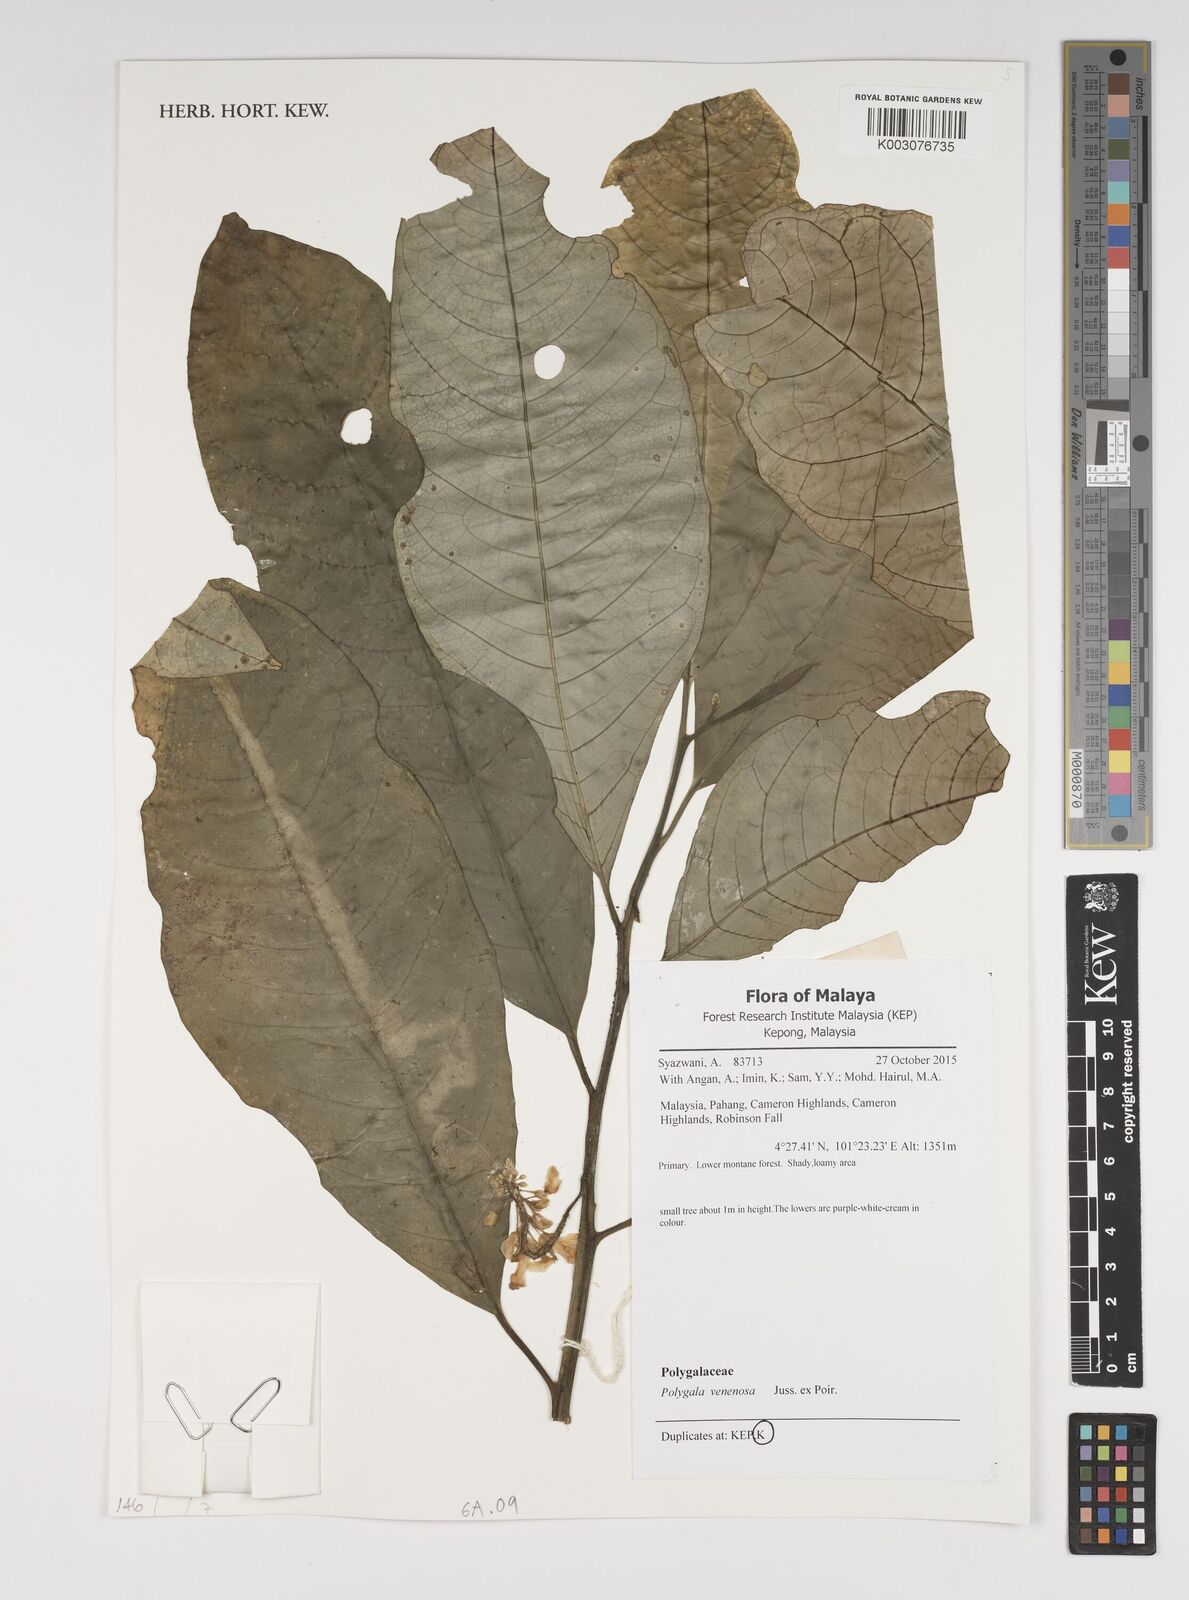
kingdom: Plantae
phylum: Tracheophyta
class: Magnoliopsida
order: Fabales
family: Polygalaceae
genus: Polygala
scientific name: Polygala venenosa
